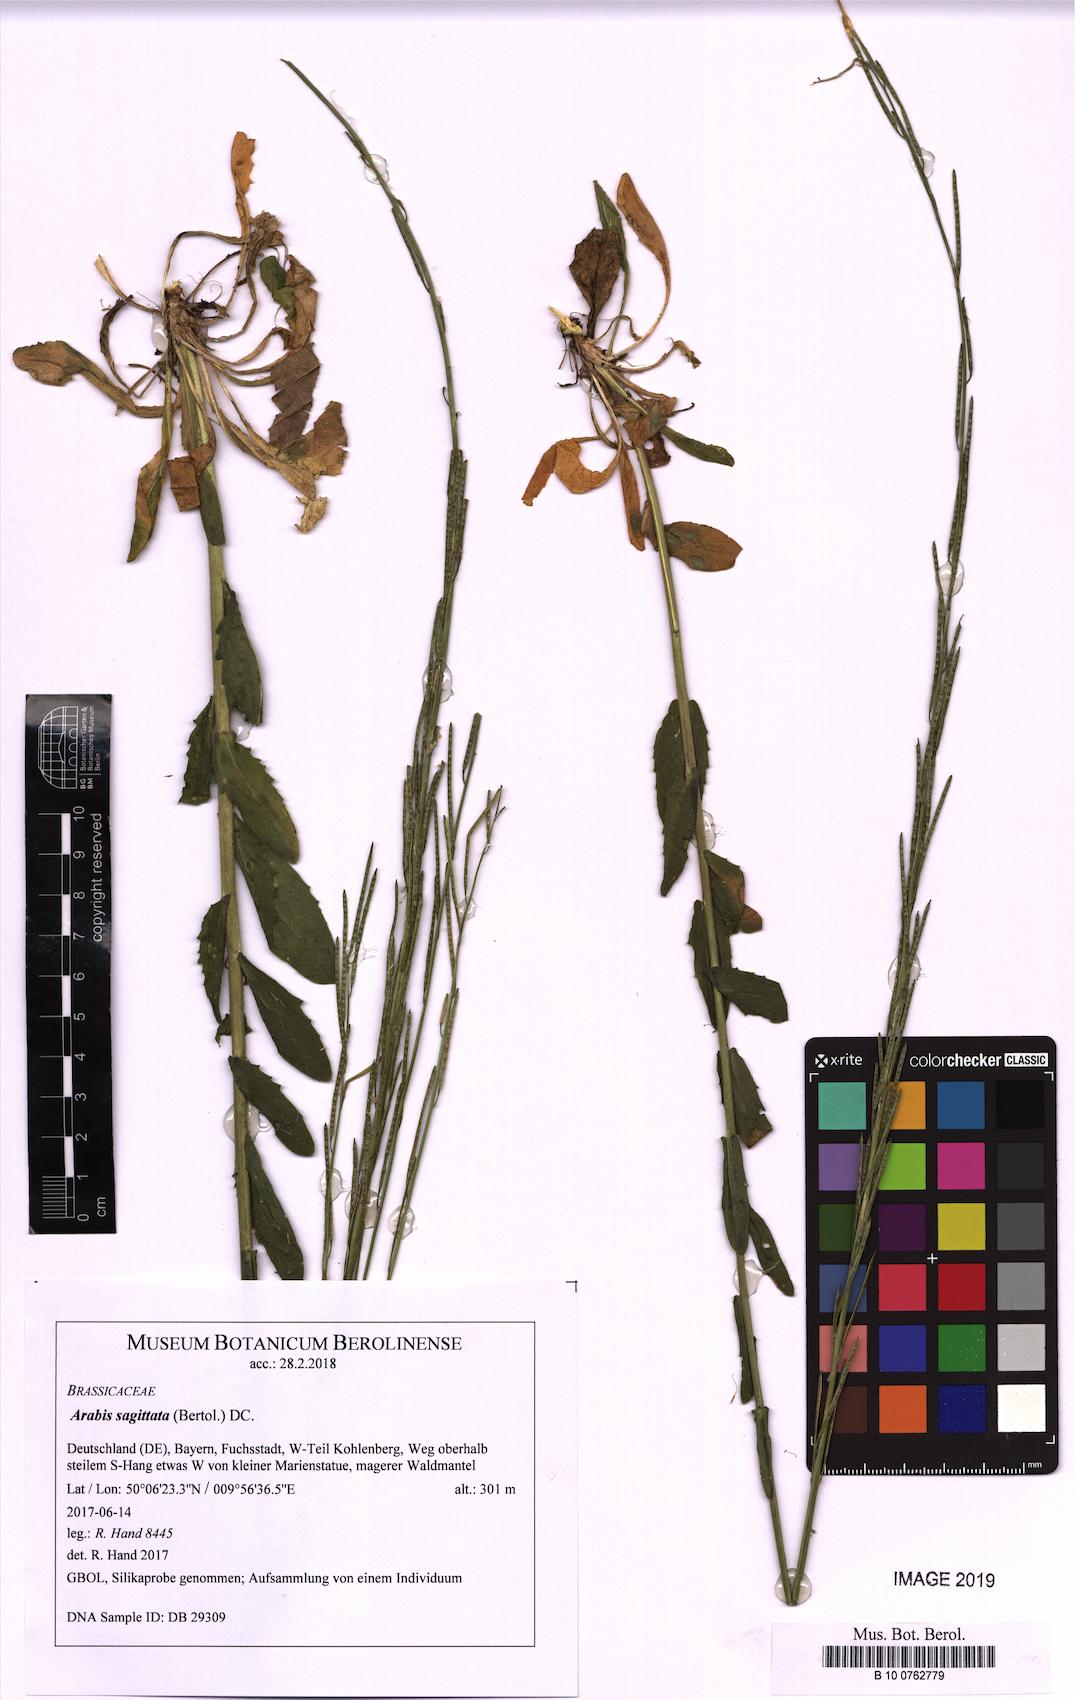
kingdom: Plantae
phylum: Tracheophyta
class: Magnoliopsida
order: Brassicales
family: Brassicaceae
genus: Arabis
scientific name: Arabis sagittata
